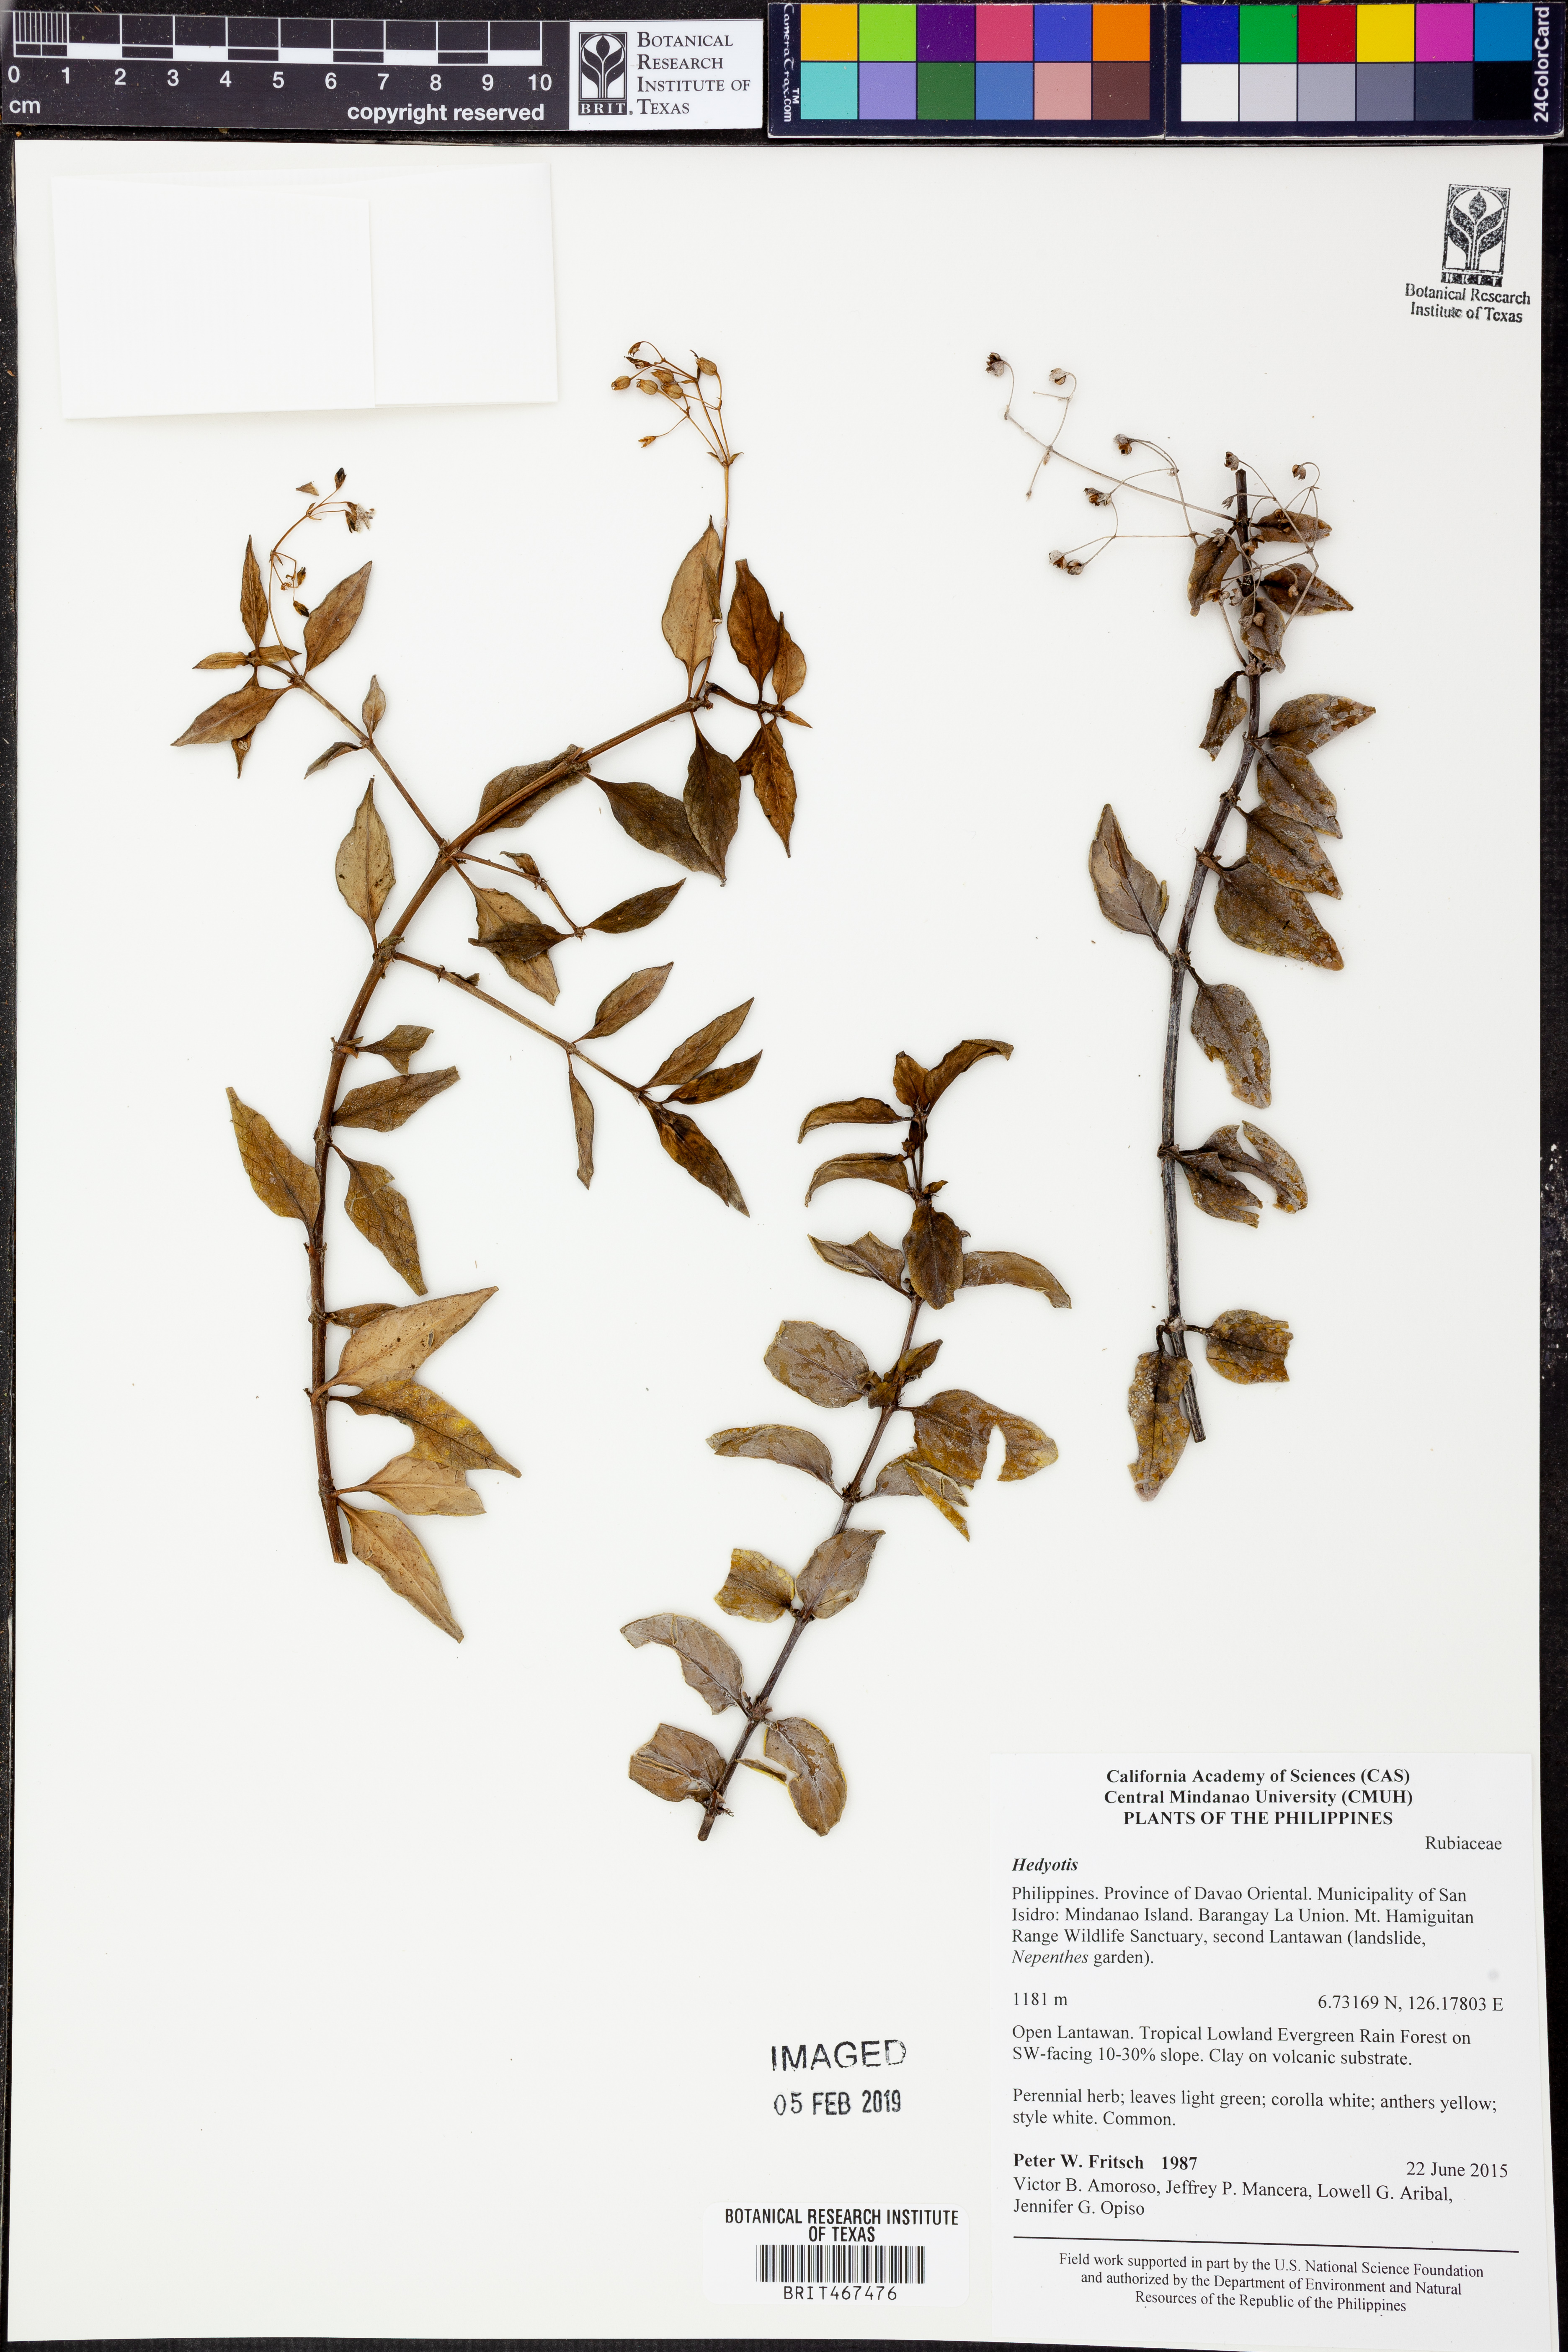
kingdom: Plantae
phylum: Tracheophyta
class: Magnoliopsida
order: Gentianales
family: Rubiaceae
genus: Hedyotis
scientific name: Hedyotis
